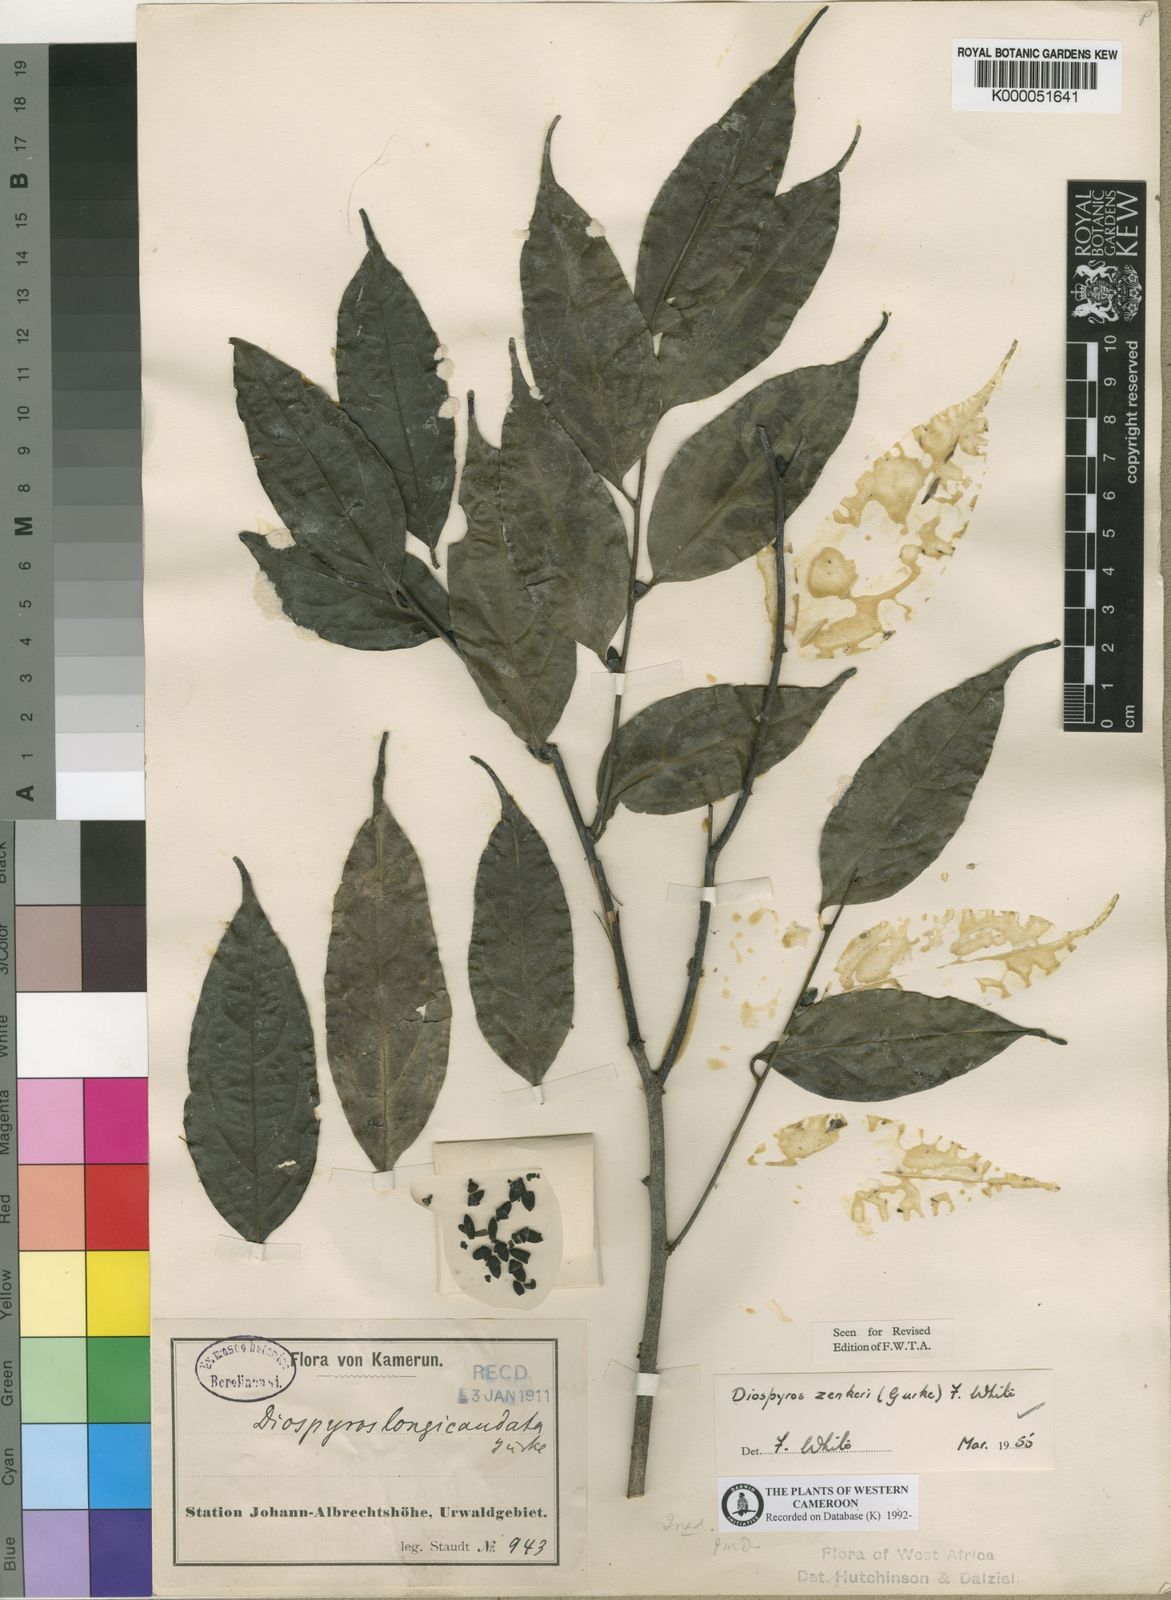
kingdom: Plantae
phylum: Tracheophyta
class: Magnoliopsida
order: Ericales
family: Ebenaceae
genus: Diospyros
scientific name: Diospyros
